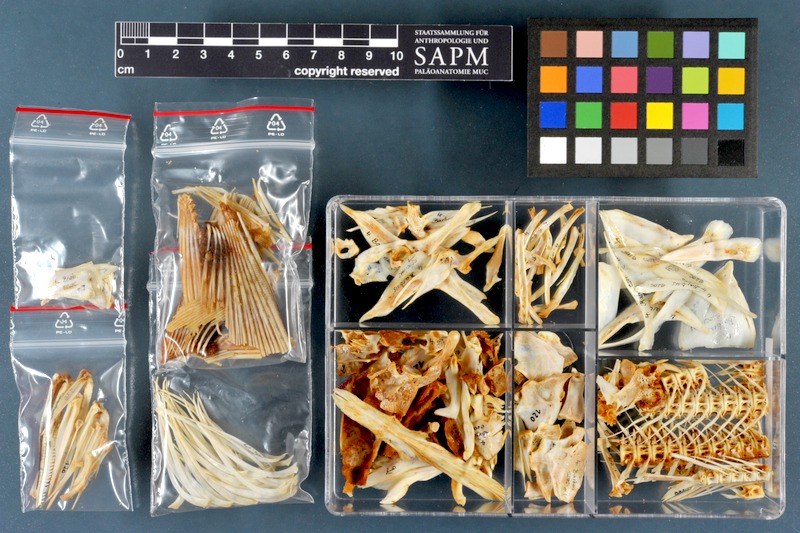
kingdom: Animalia
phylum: Chordata
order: Cypriniformes
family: Cyprinidae
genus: Luciobarbus
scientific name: Luciobarbus esocinus
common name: Pike barbel
